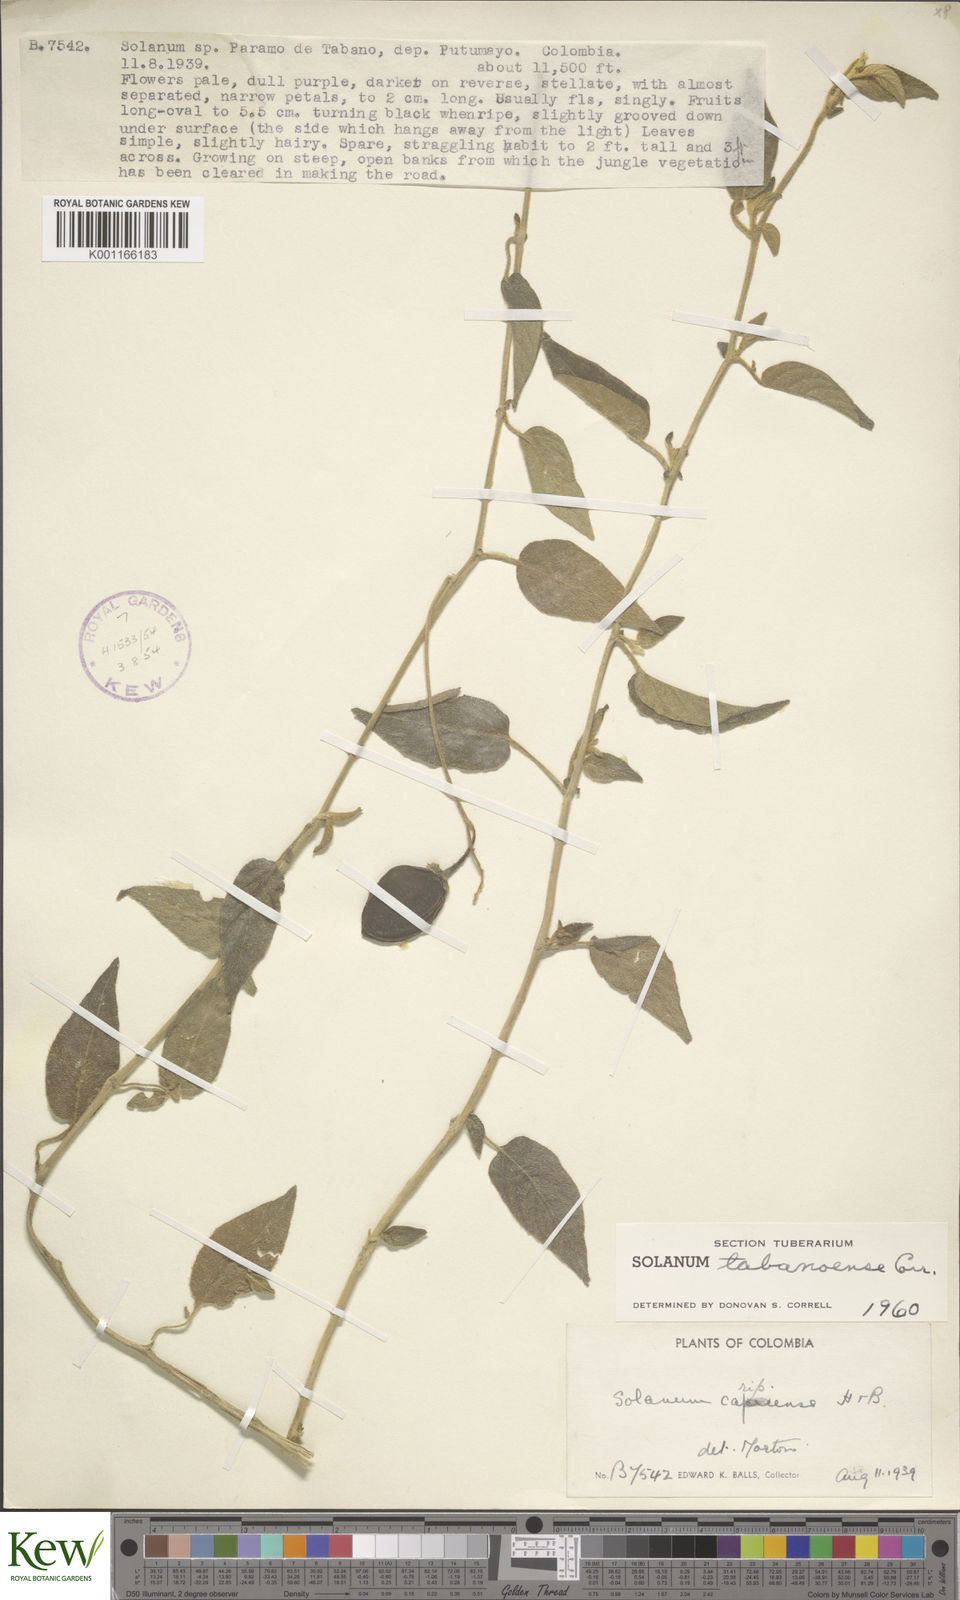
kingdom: Plantae
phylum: Tracheophyta
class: Magnoliopsida
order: Solanales
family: Solanaceae
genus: Solanum
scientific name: Solanum tabanoense
